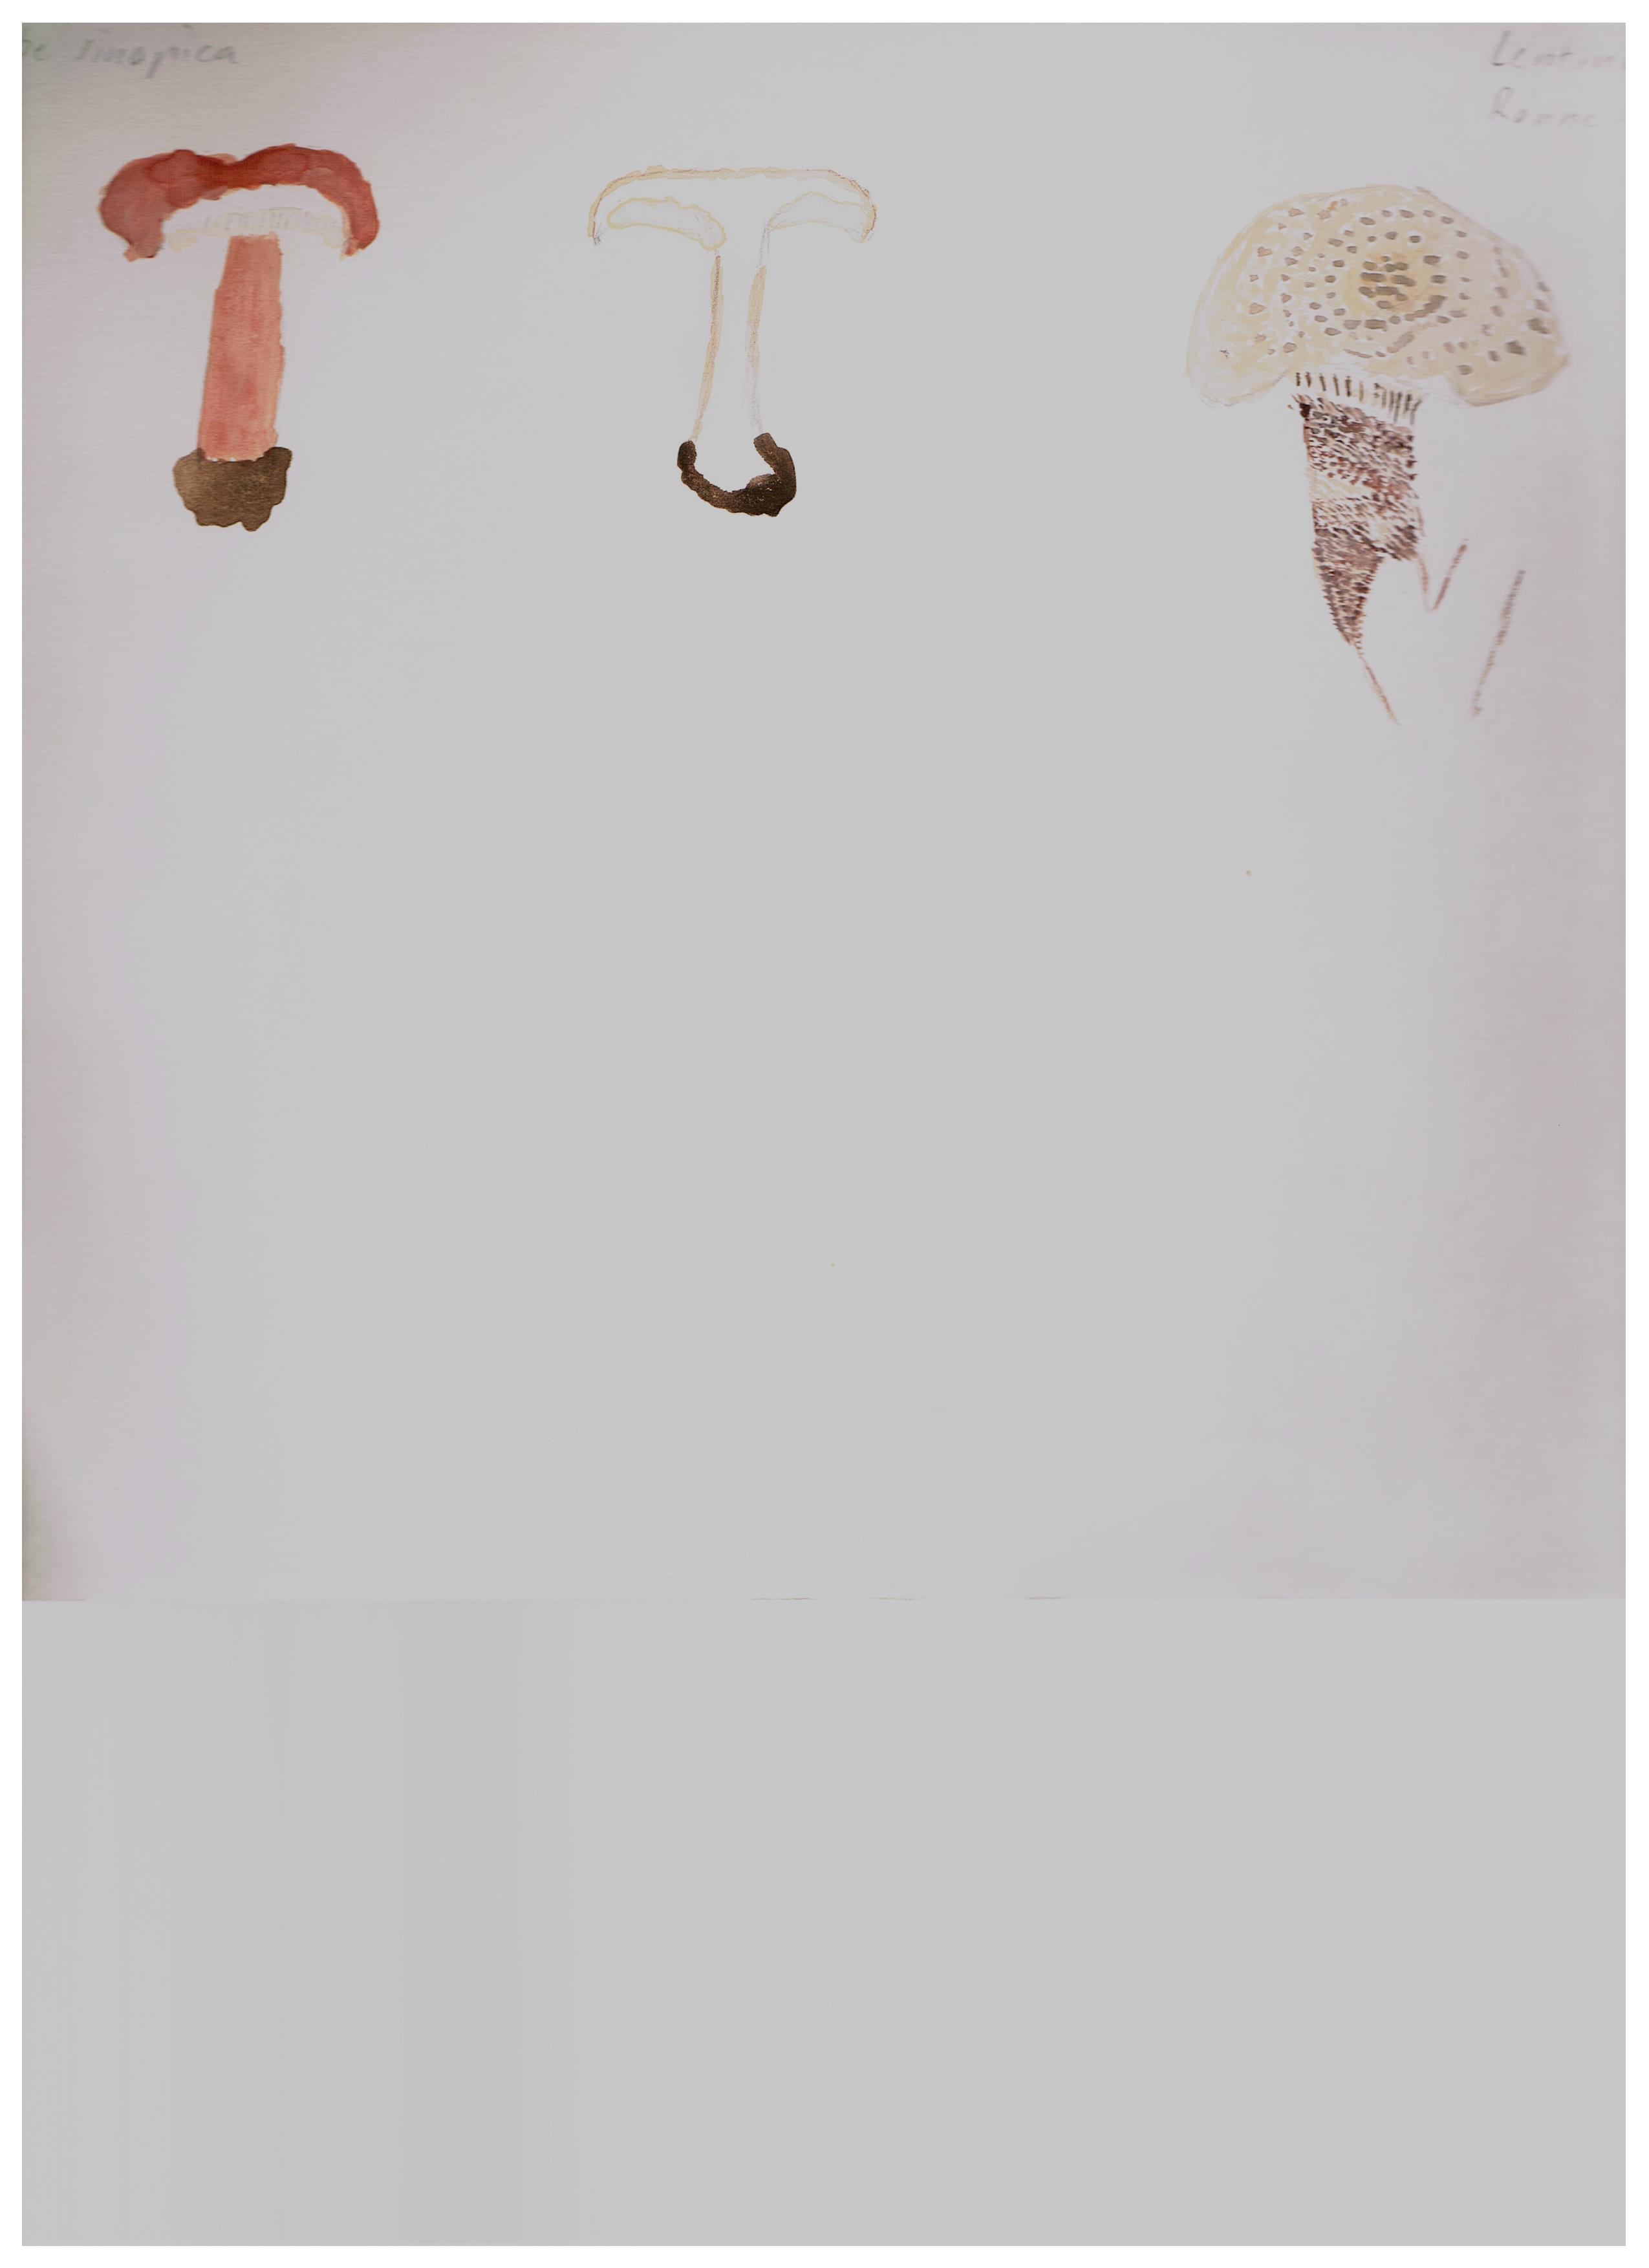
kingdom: Fungi
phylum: Basidiomycota
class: Agaricomycetes
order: Gloeophyllales
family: Gloeophyllaceae
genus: Neolentinus
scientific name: Neolentinus lepideus
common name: skællet sejhat
